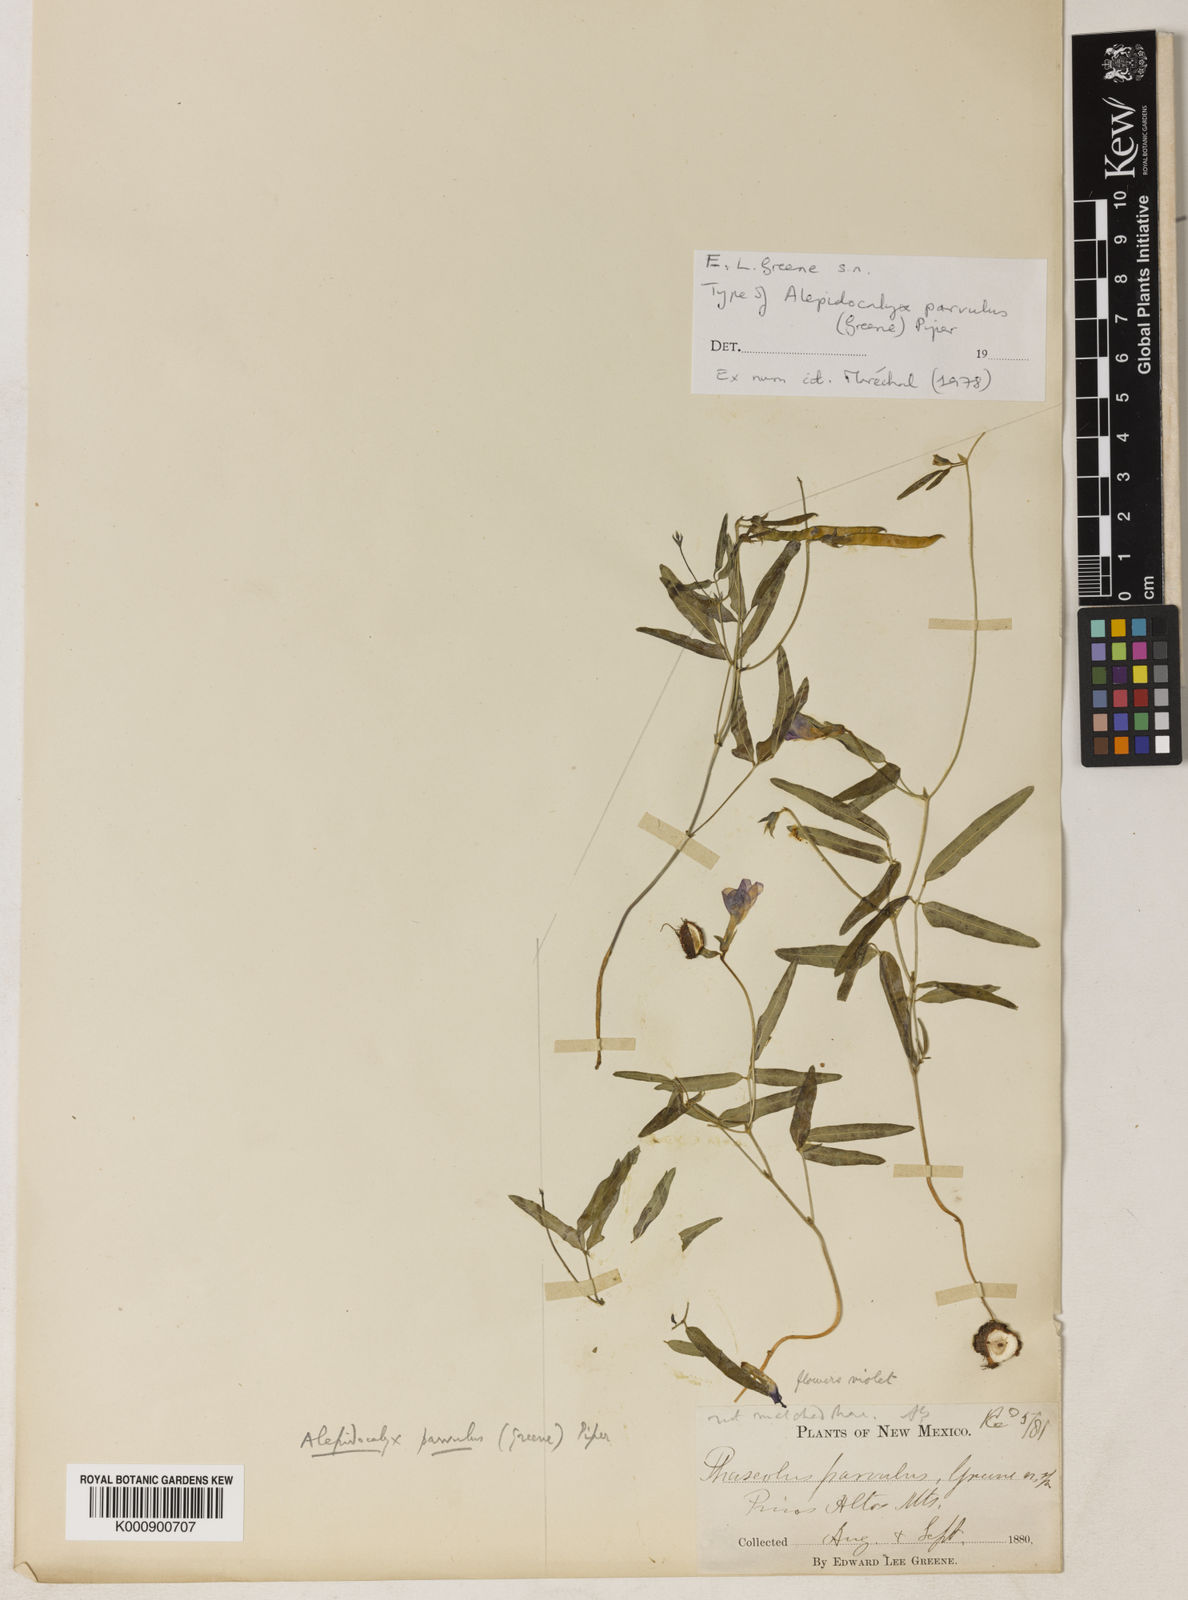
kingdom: Plantae
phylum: Tracheophyta
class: Magnoliopsida
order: Fabales
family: Fabaceae
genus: Phaseolus
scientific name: Phaseolus parvulus
